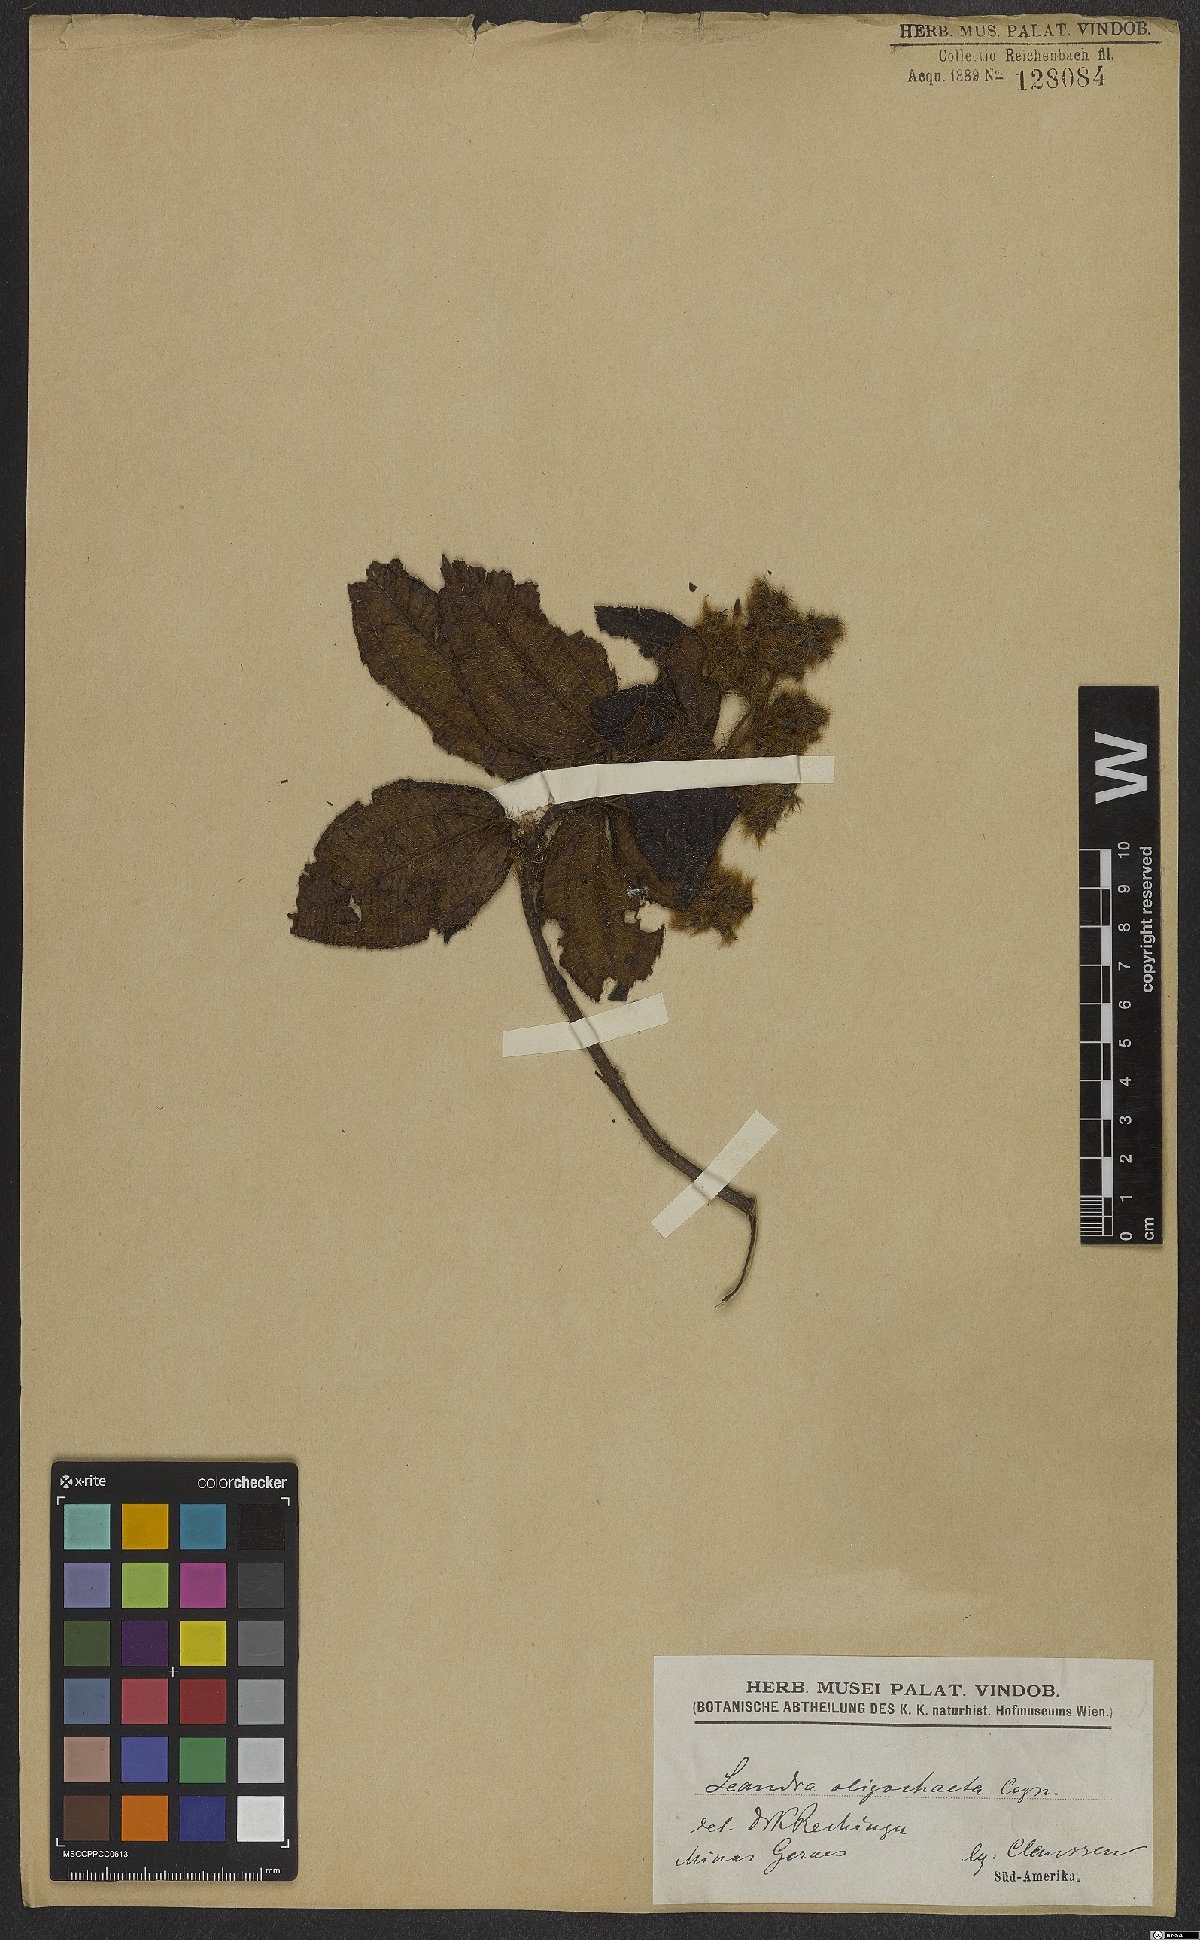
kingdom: Plantae
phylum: Tracheophyta
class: Magnoliopsida
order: Myrtales
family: Melastomataceae
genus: Miconia
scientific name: Miconia oligochaeta
